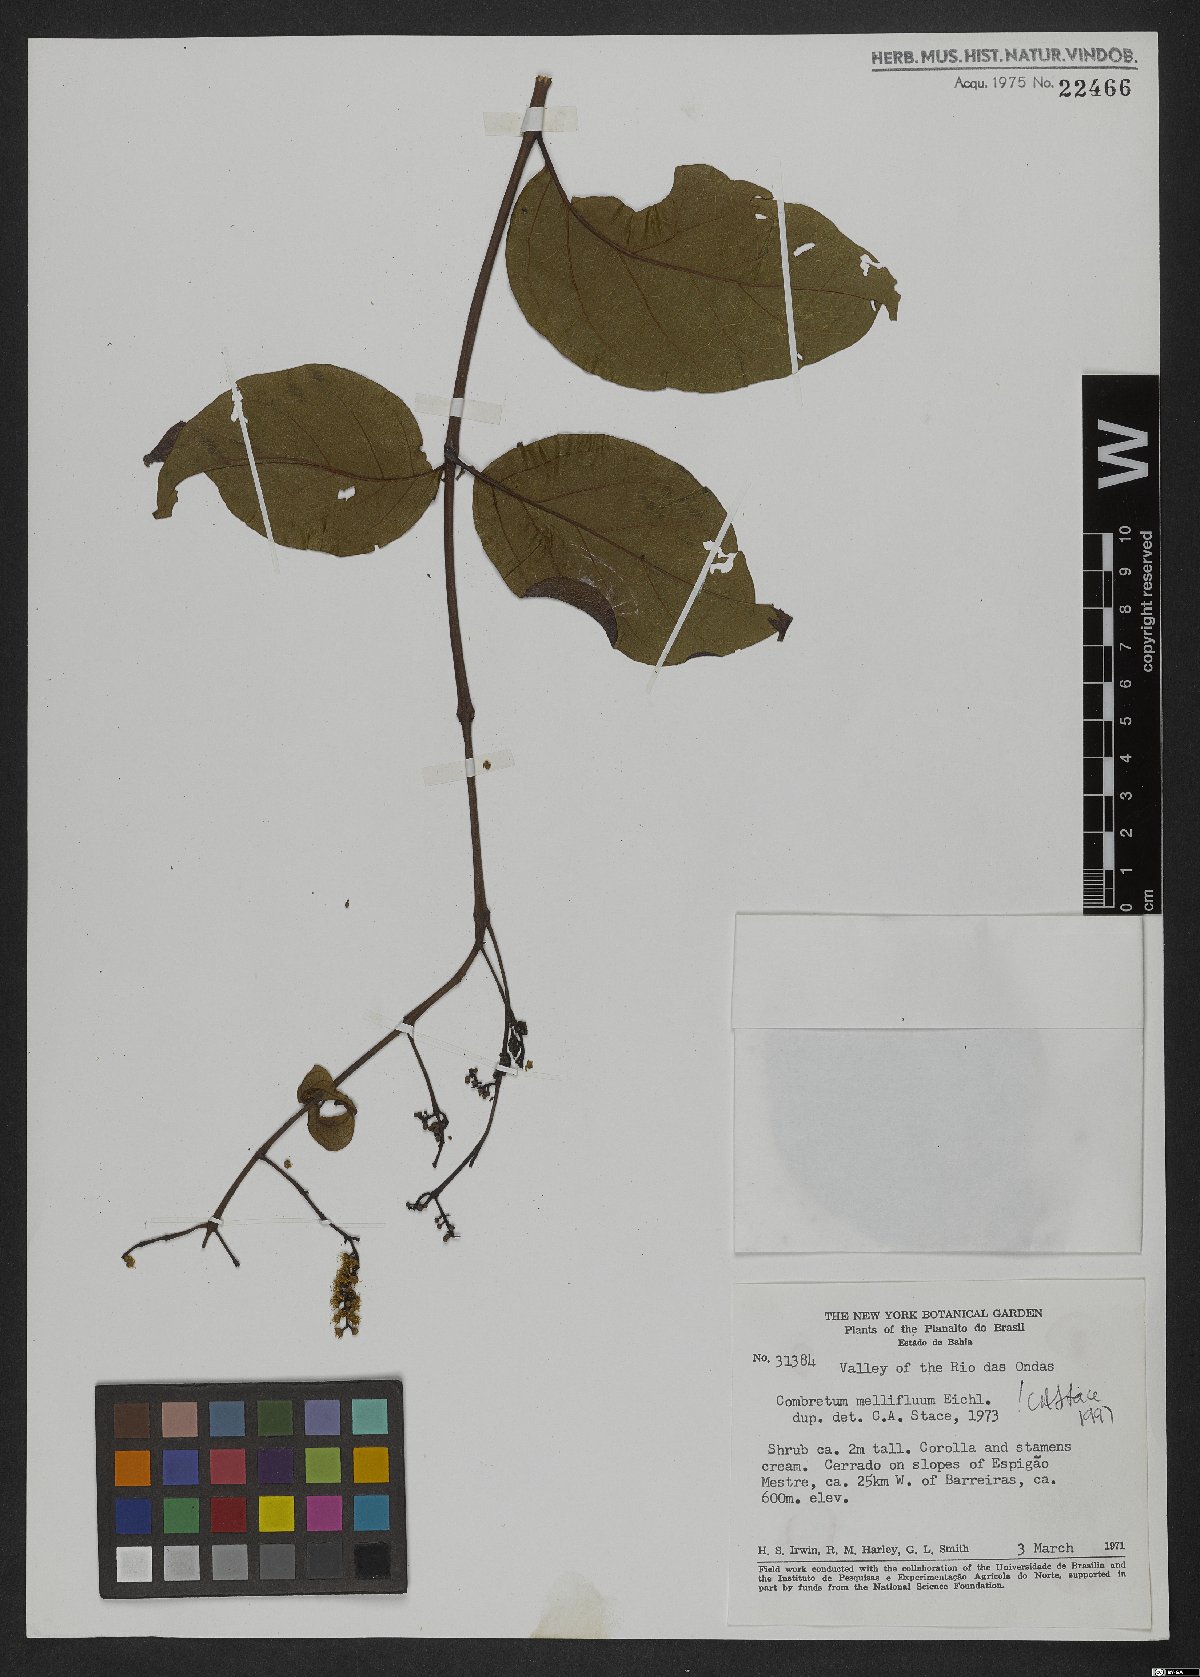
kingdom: Plantae
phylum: Tracheophyta
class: Magnoliopsida
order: Myrtales
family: Combretaceae
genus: Combretum
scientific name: Combretum mellifluum
